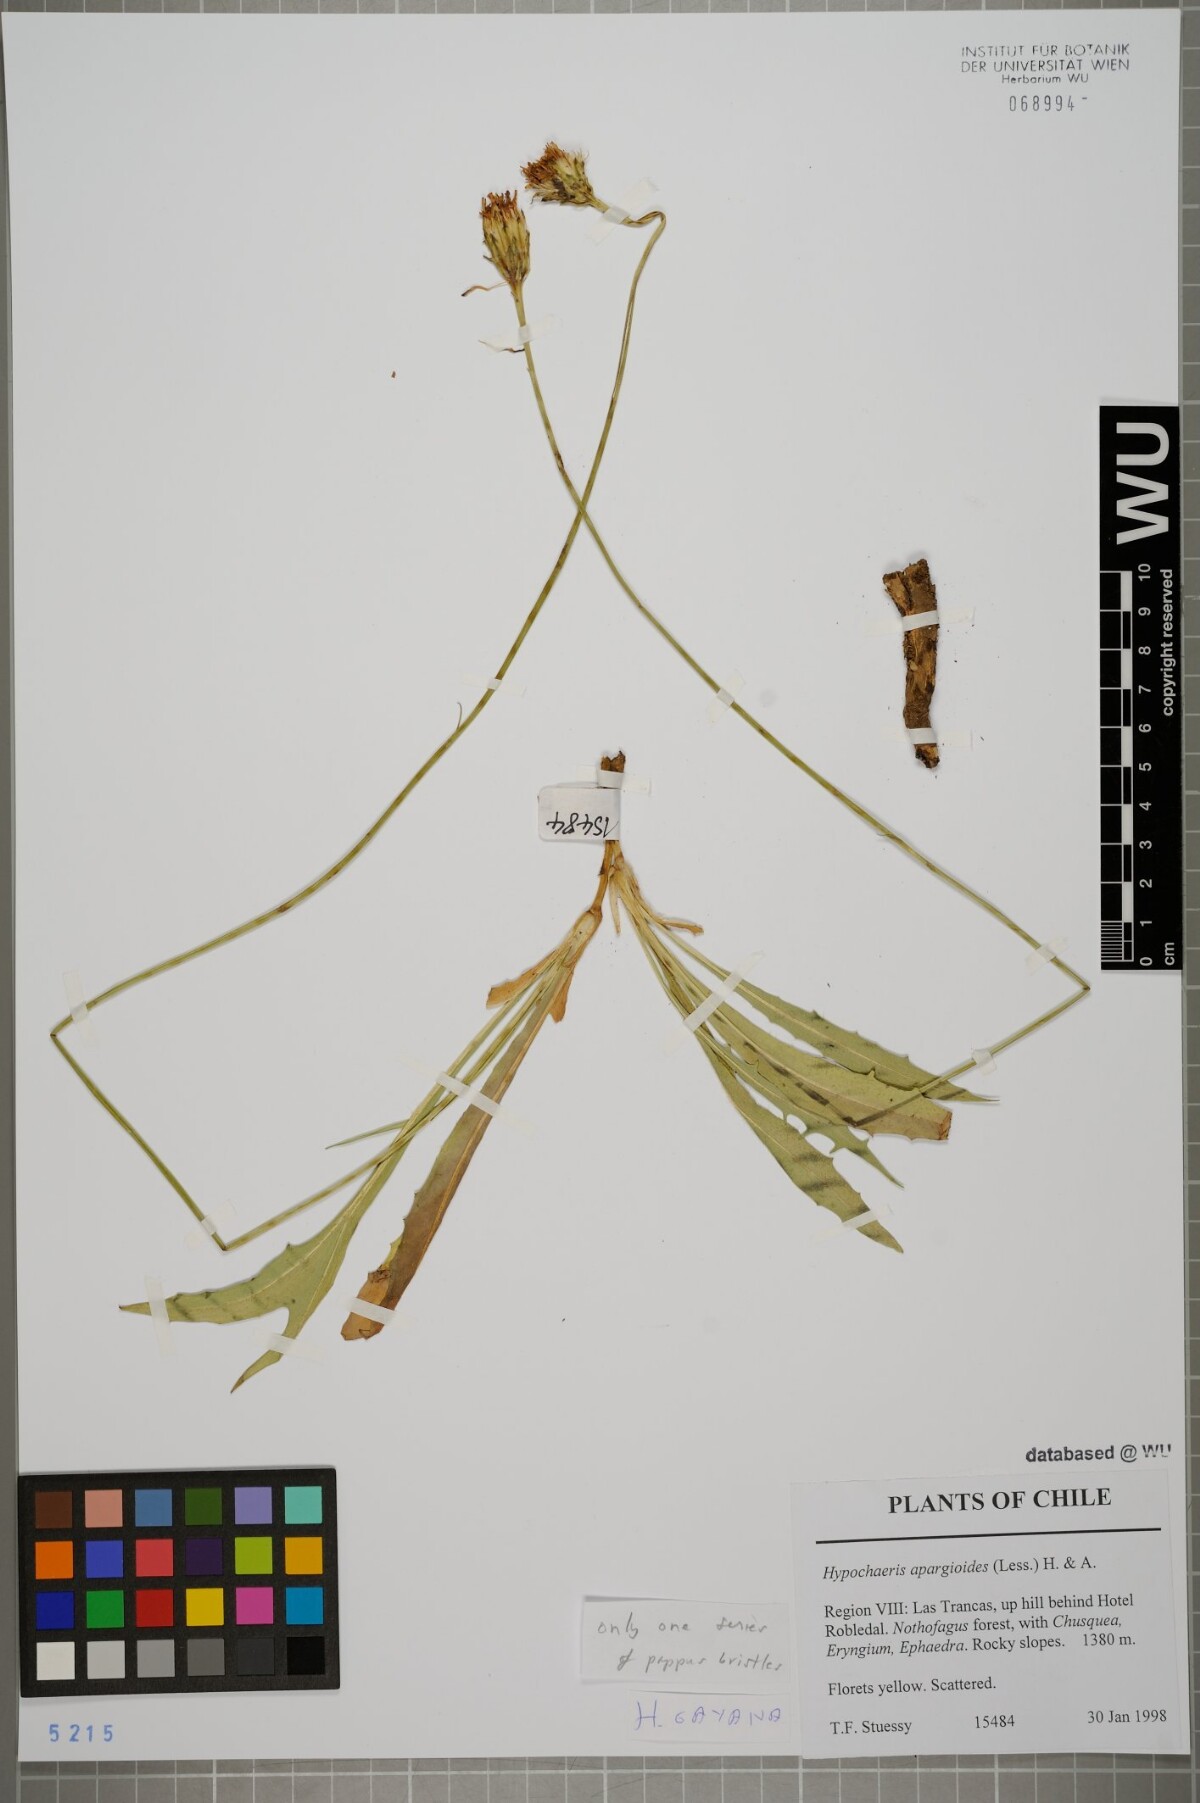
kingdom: Plantae
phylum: Tracheophyta
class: Magnoliopsida
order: Asterales
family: Asteraceae
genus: Hypochaeris
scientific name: Hypochaeris apargioides
